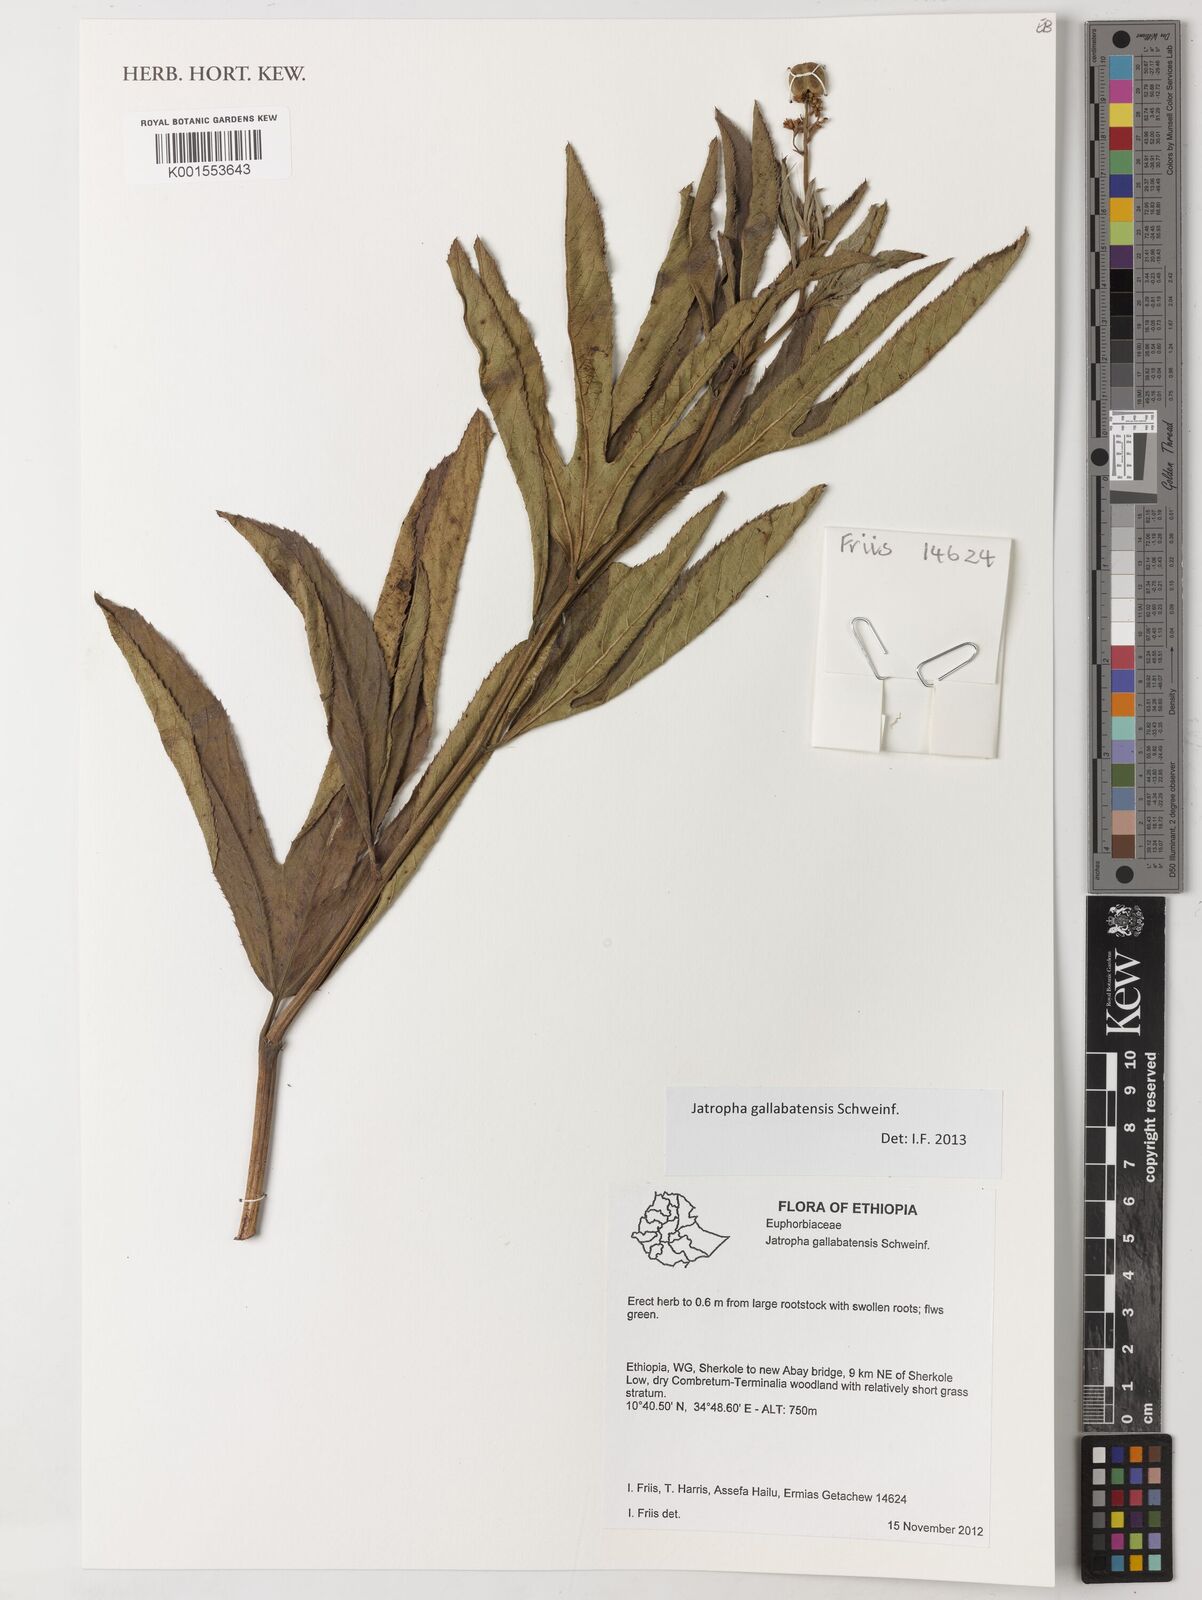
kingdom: Plantae
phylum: Tracheophyta
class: Magnoliopsida
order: Malpighiales
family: Euphorbiaceae
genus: Jatropha
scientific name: Jatropha gallabatensis
